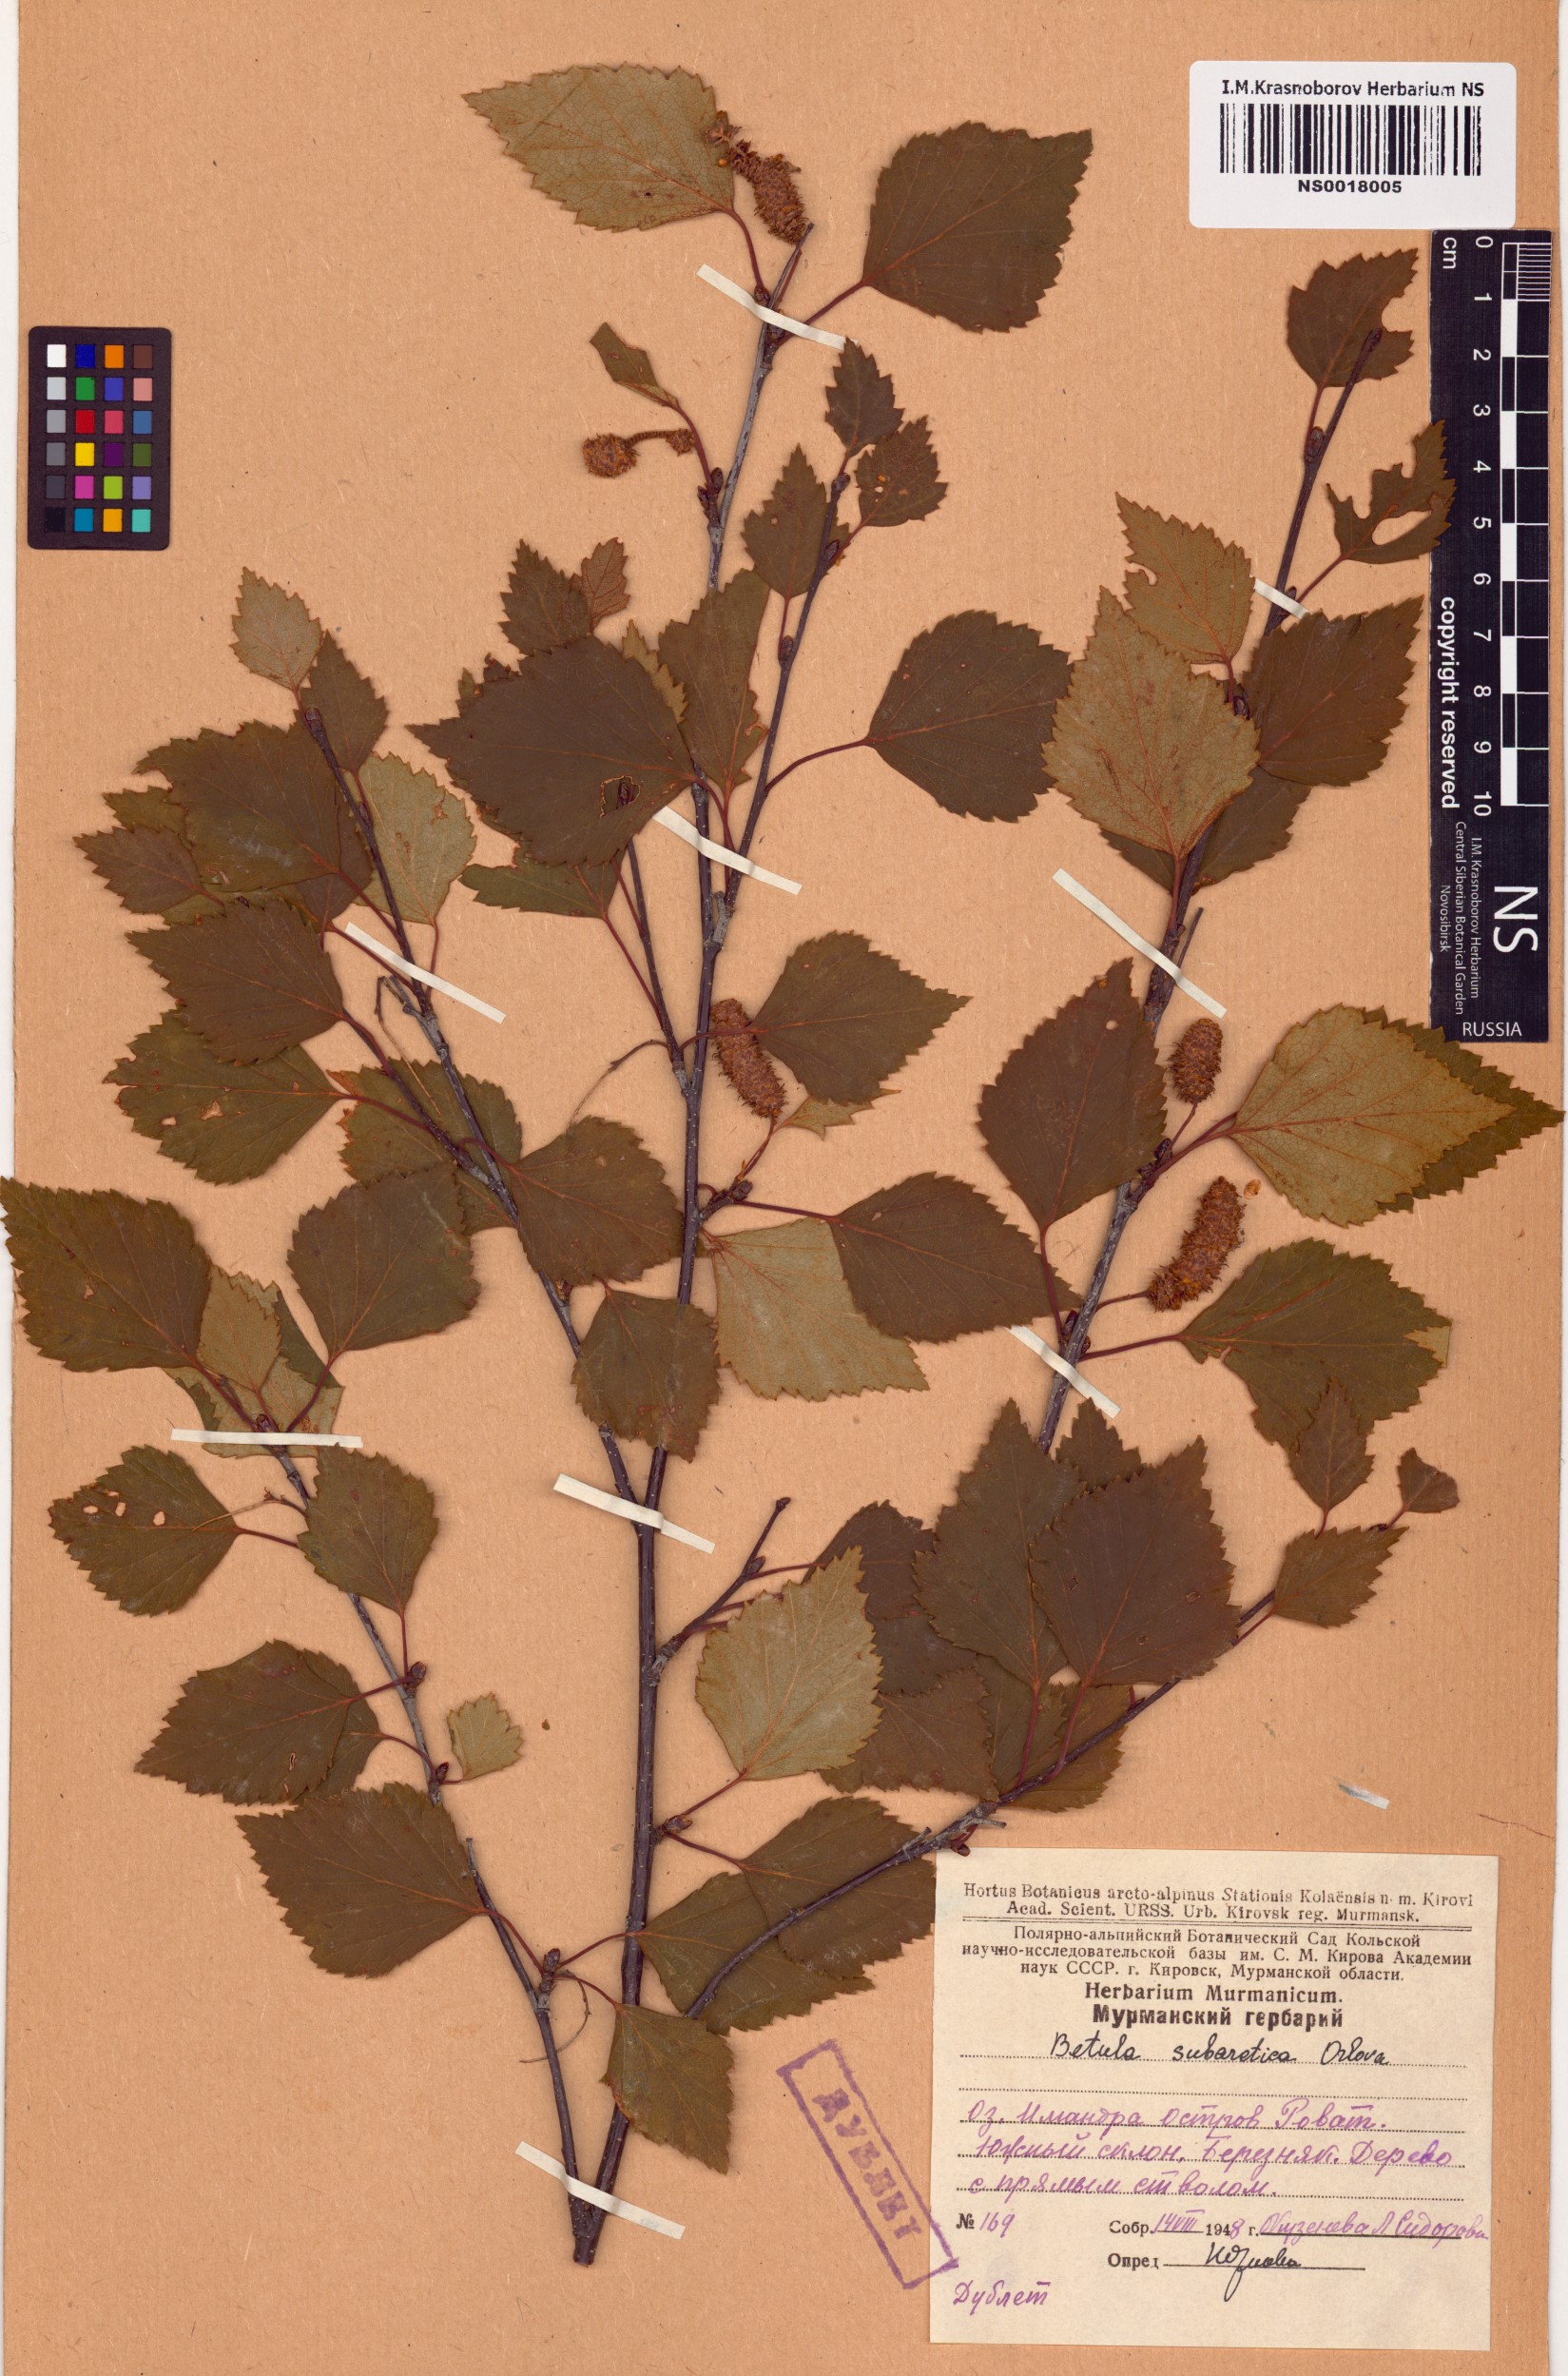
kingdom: Plantae
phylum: Tracheophyta
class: Magnoliopsida
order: Fagales
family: Betulaceae
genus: Betula
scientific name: Betula pubescens
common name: Downy birch
